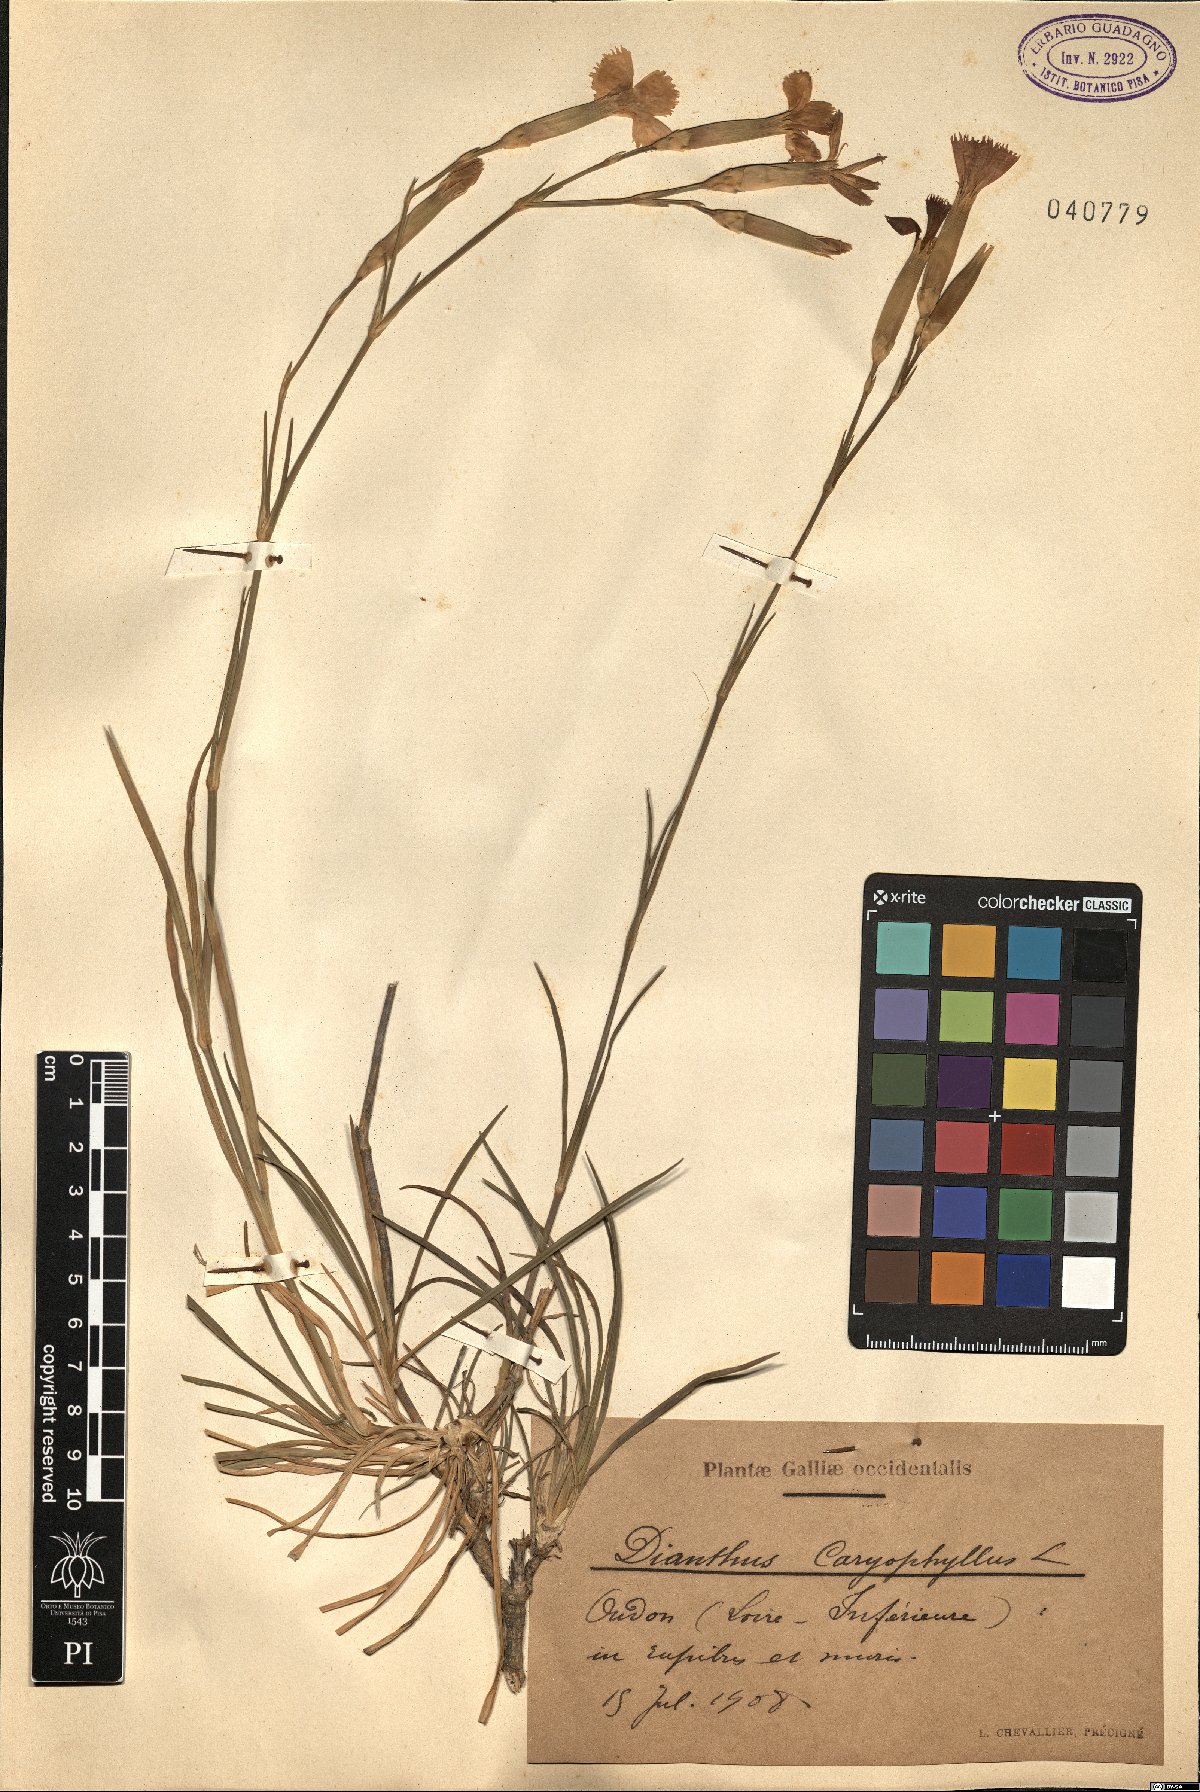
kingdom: Plantae
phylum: Tracheophyta
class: Magnoliopsida
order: Caryophyllales
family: Caryophyllaceae
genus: Dianthus
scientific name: Dianthus caryophyllus
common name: Clove pink
